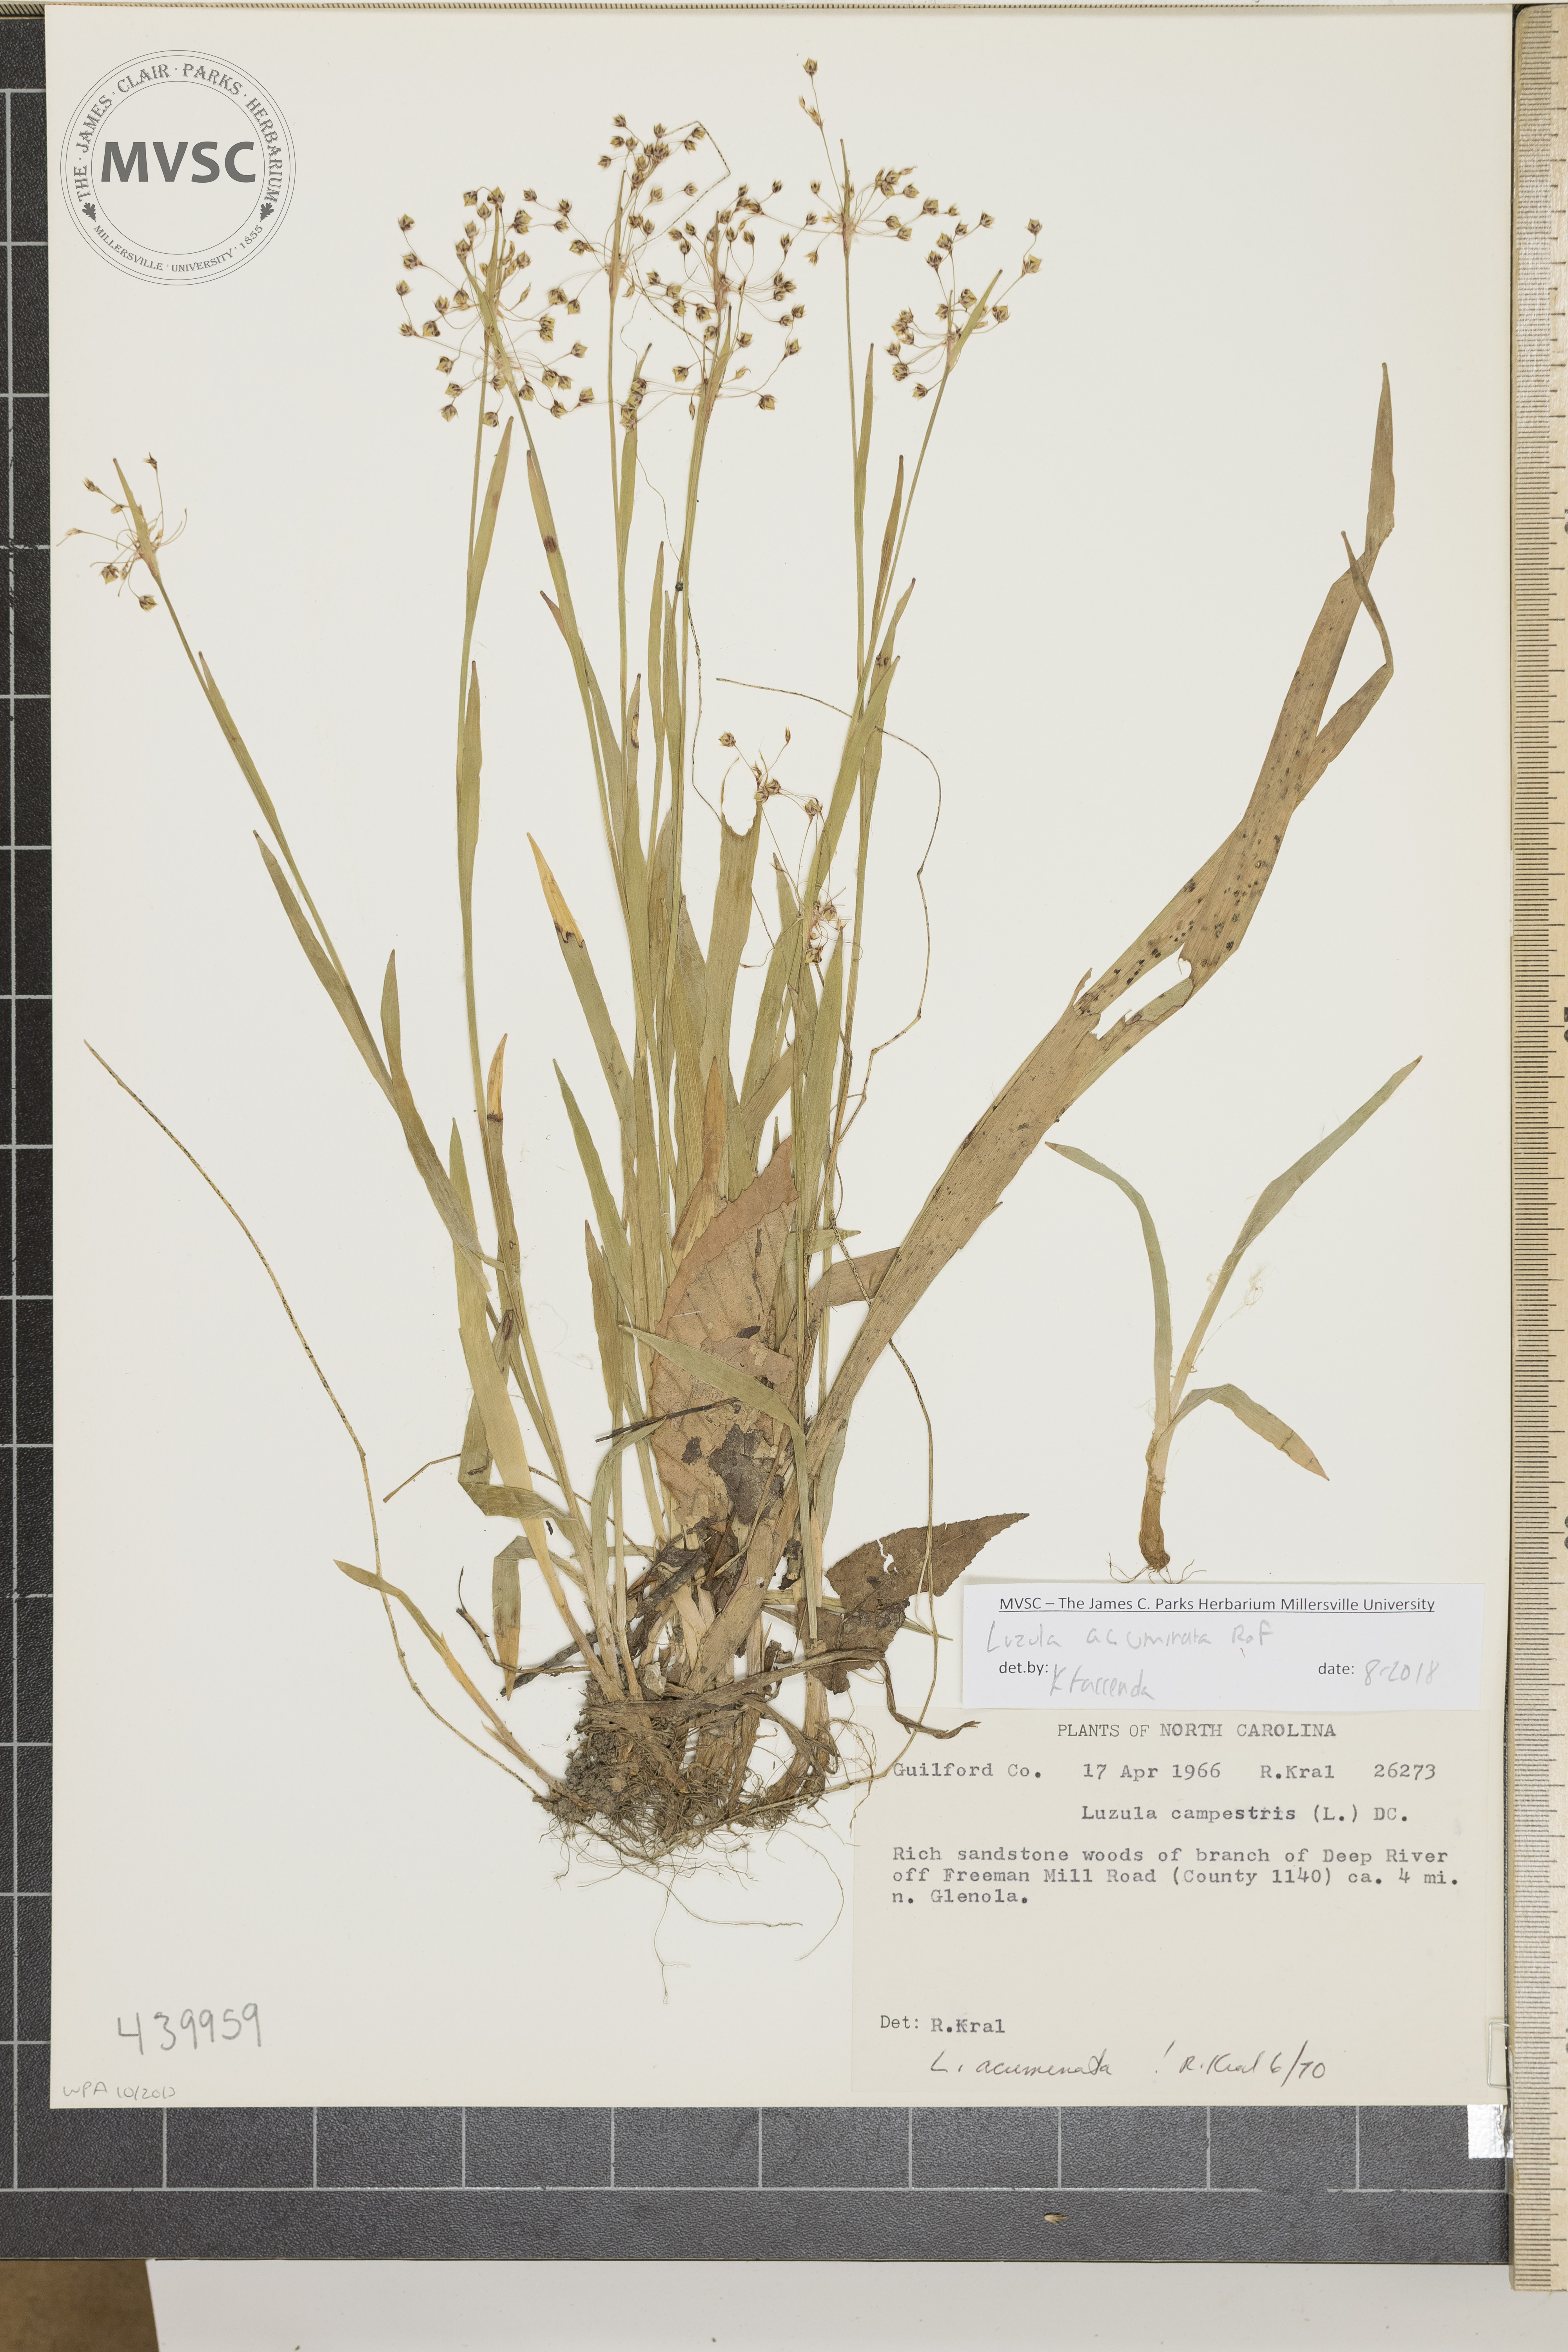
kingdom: Plantae
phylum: Tracheophyta
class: Liliopsida
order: Poales
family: Juncaceae
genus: Luzula
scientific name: Luzula acuminata
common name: Hairy woodrush
